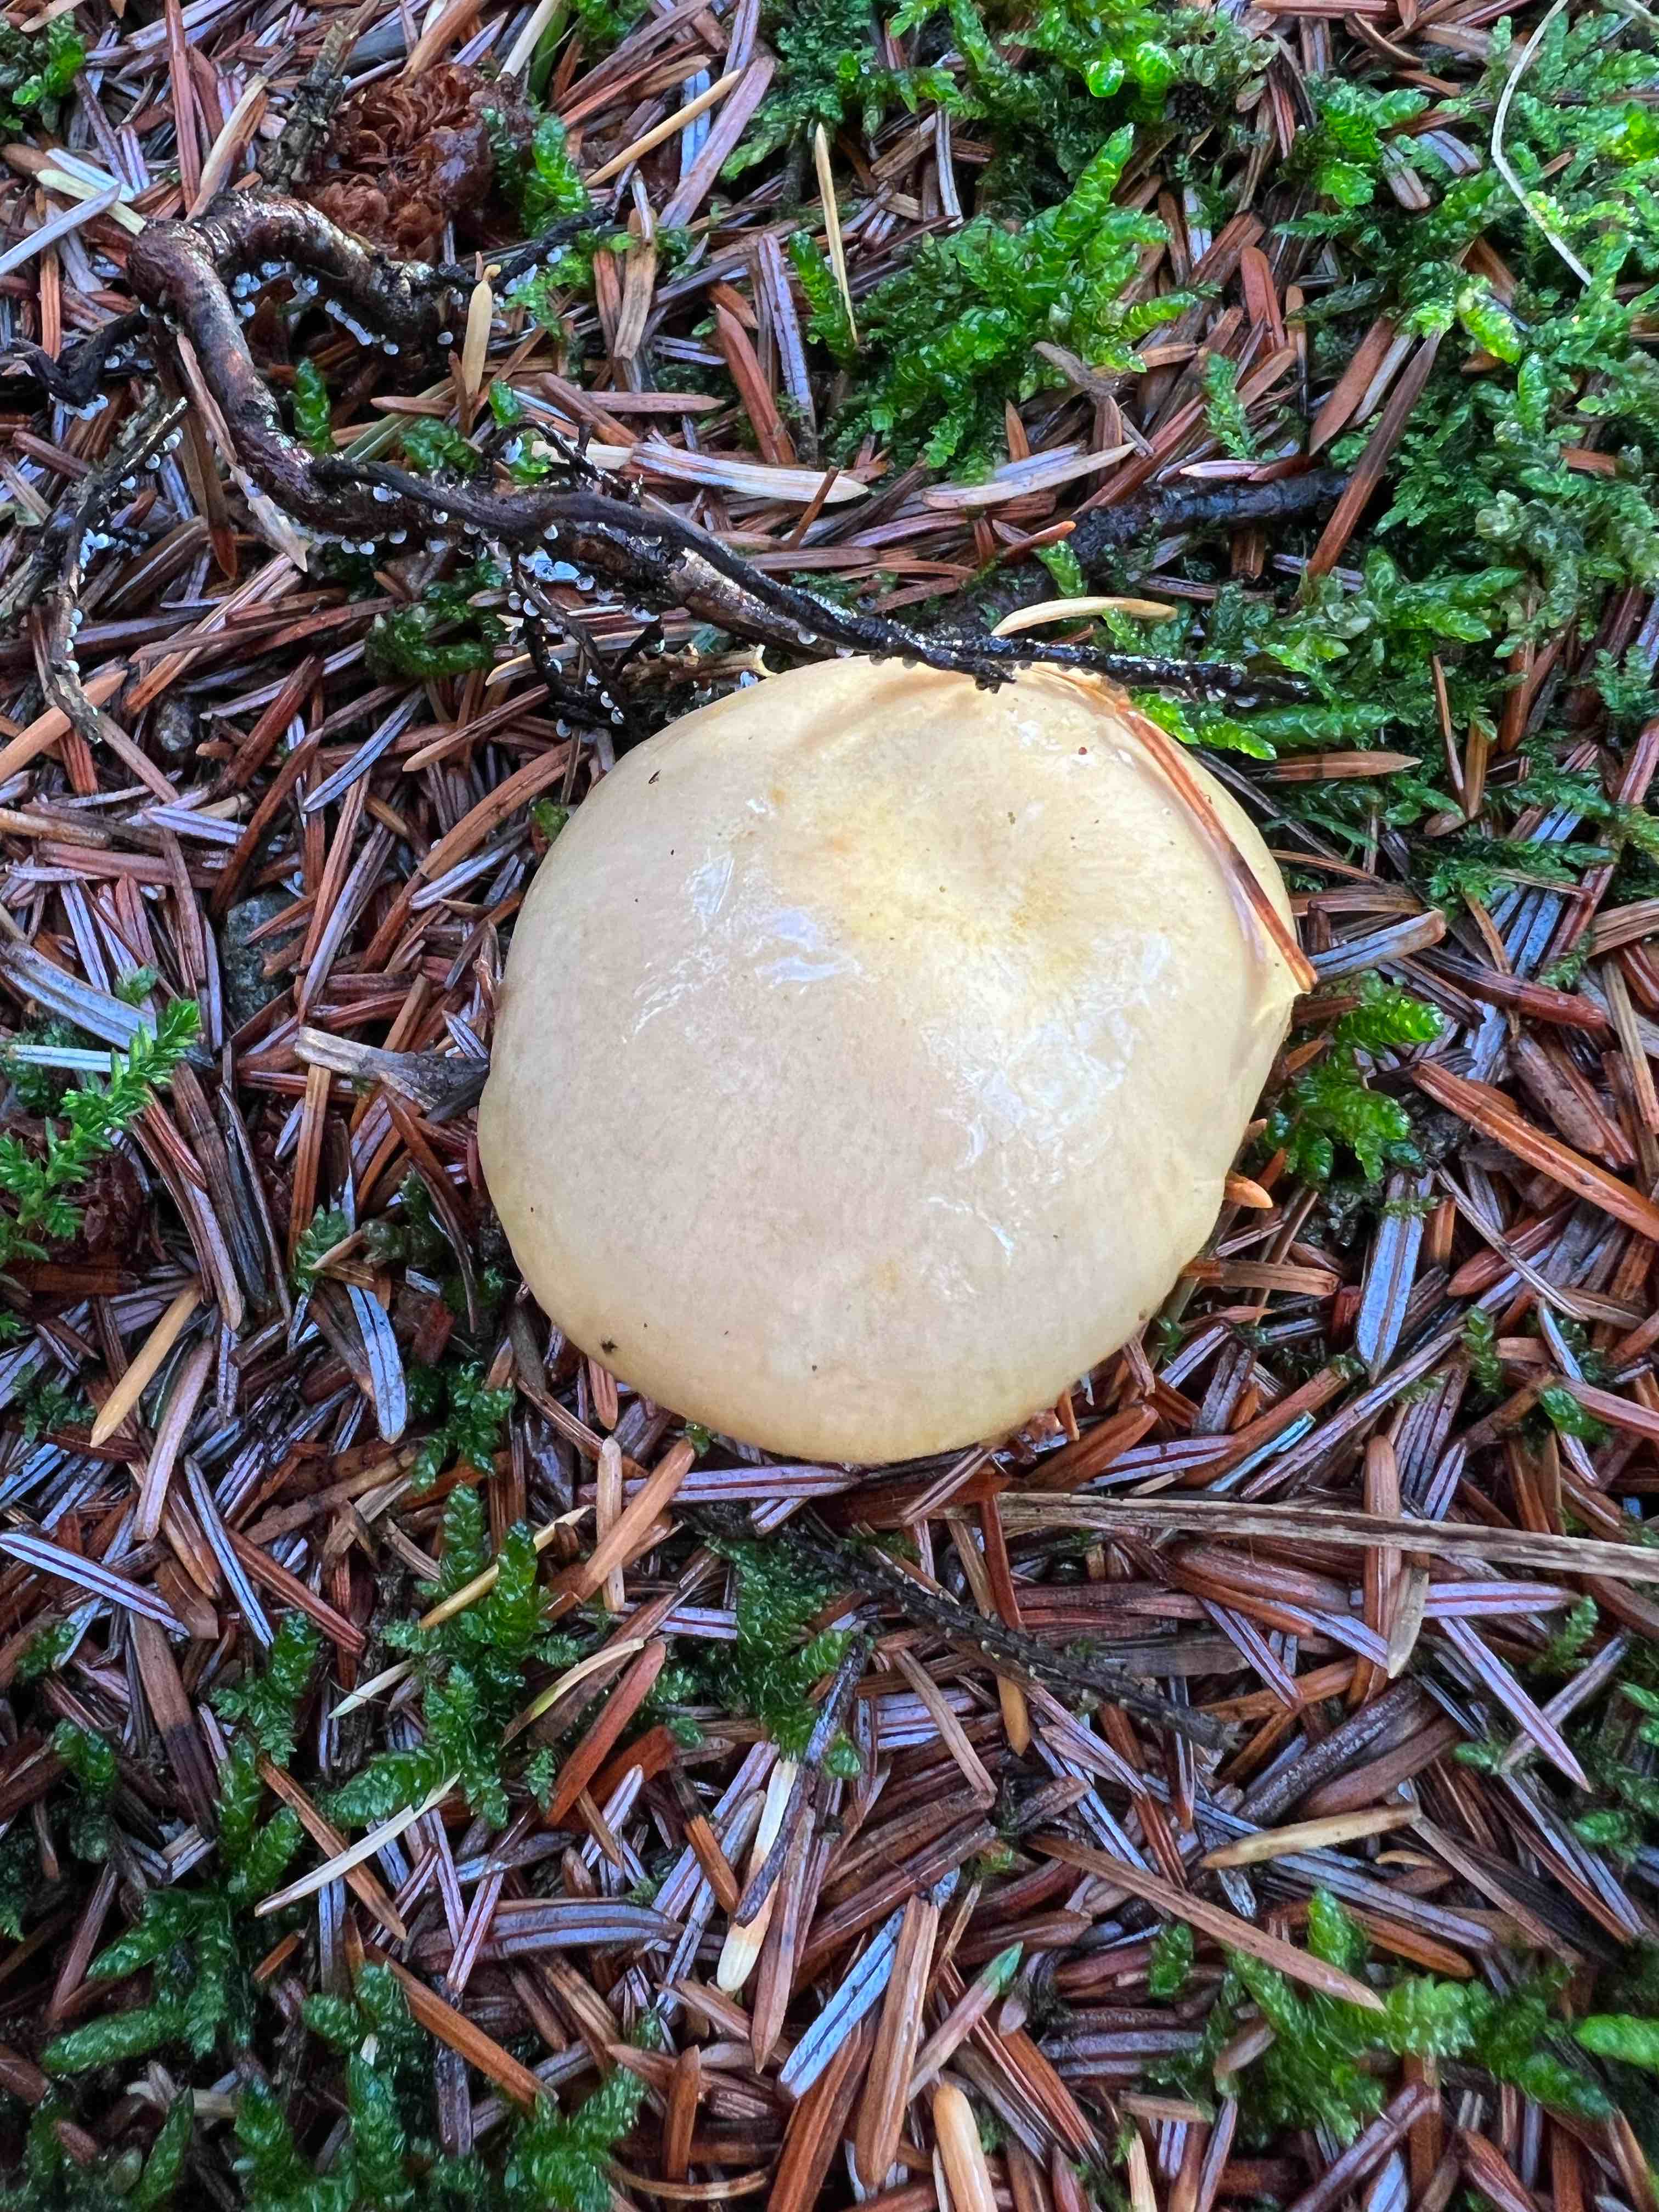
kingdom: Fungi
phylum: Basidiomycota
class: Agaricomycetes
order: Russulales
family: Russulaceae
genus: Russula
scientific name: Russula ochroleuca
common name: okkergul skørhat
